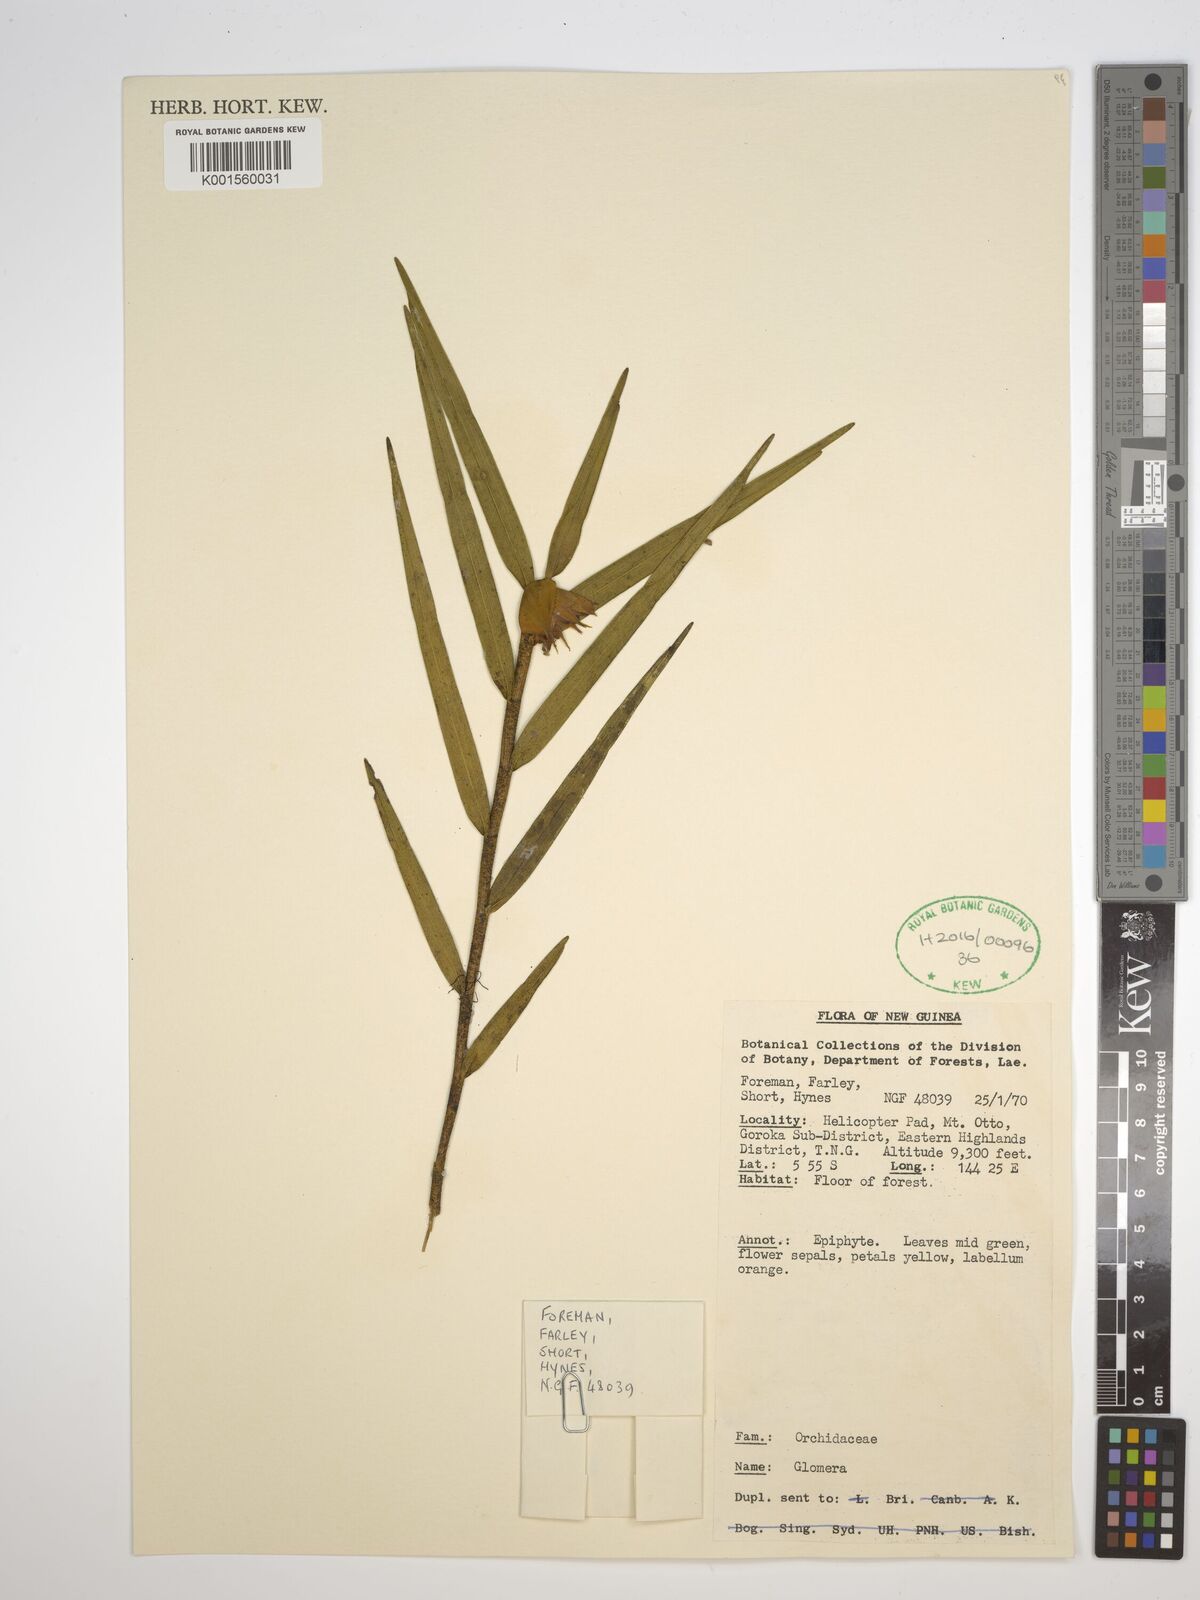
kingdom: Plantae
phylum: Tracheophyta
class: Liliopsida
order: Asparagales
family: Orchidaceae
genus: Glomera
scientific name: Glomera
